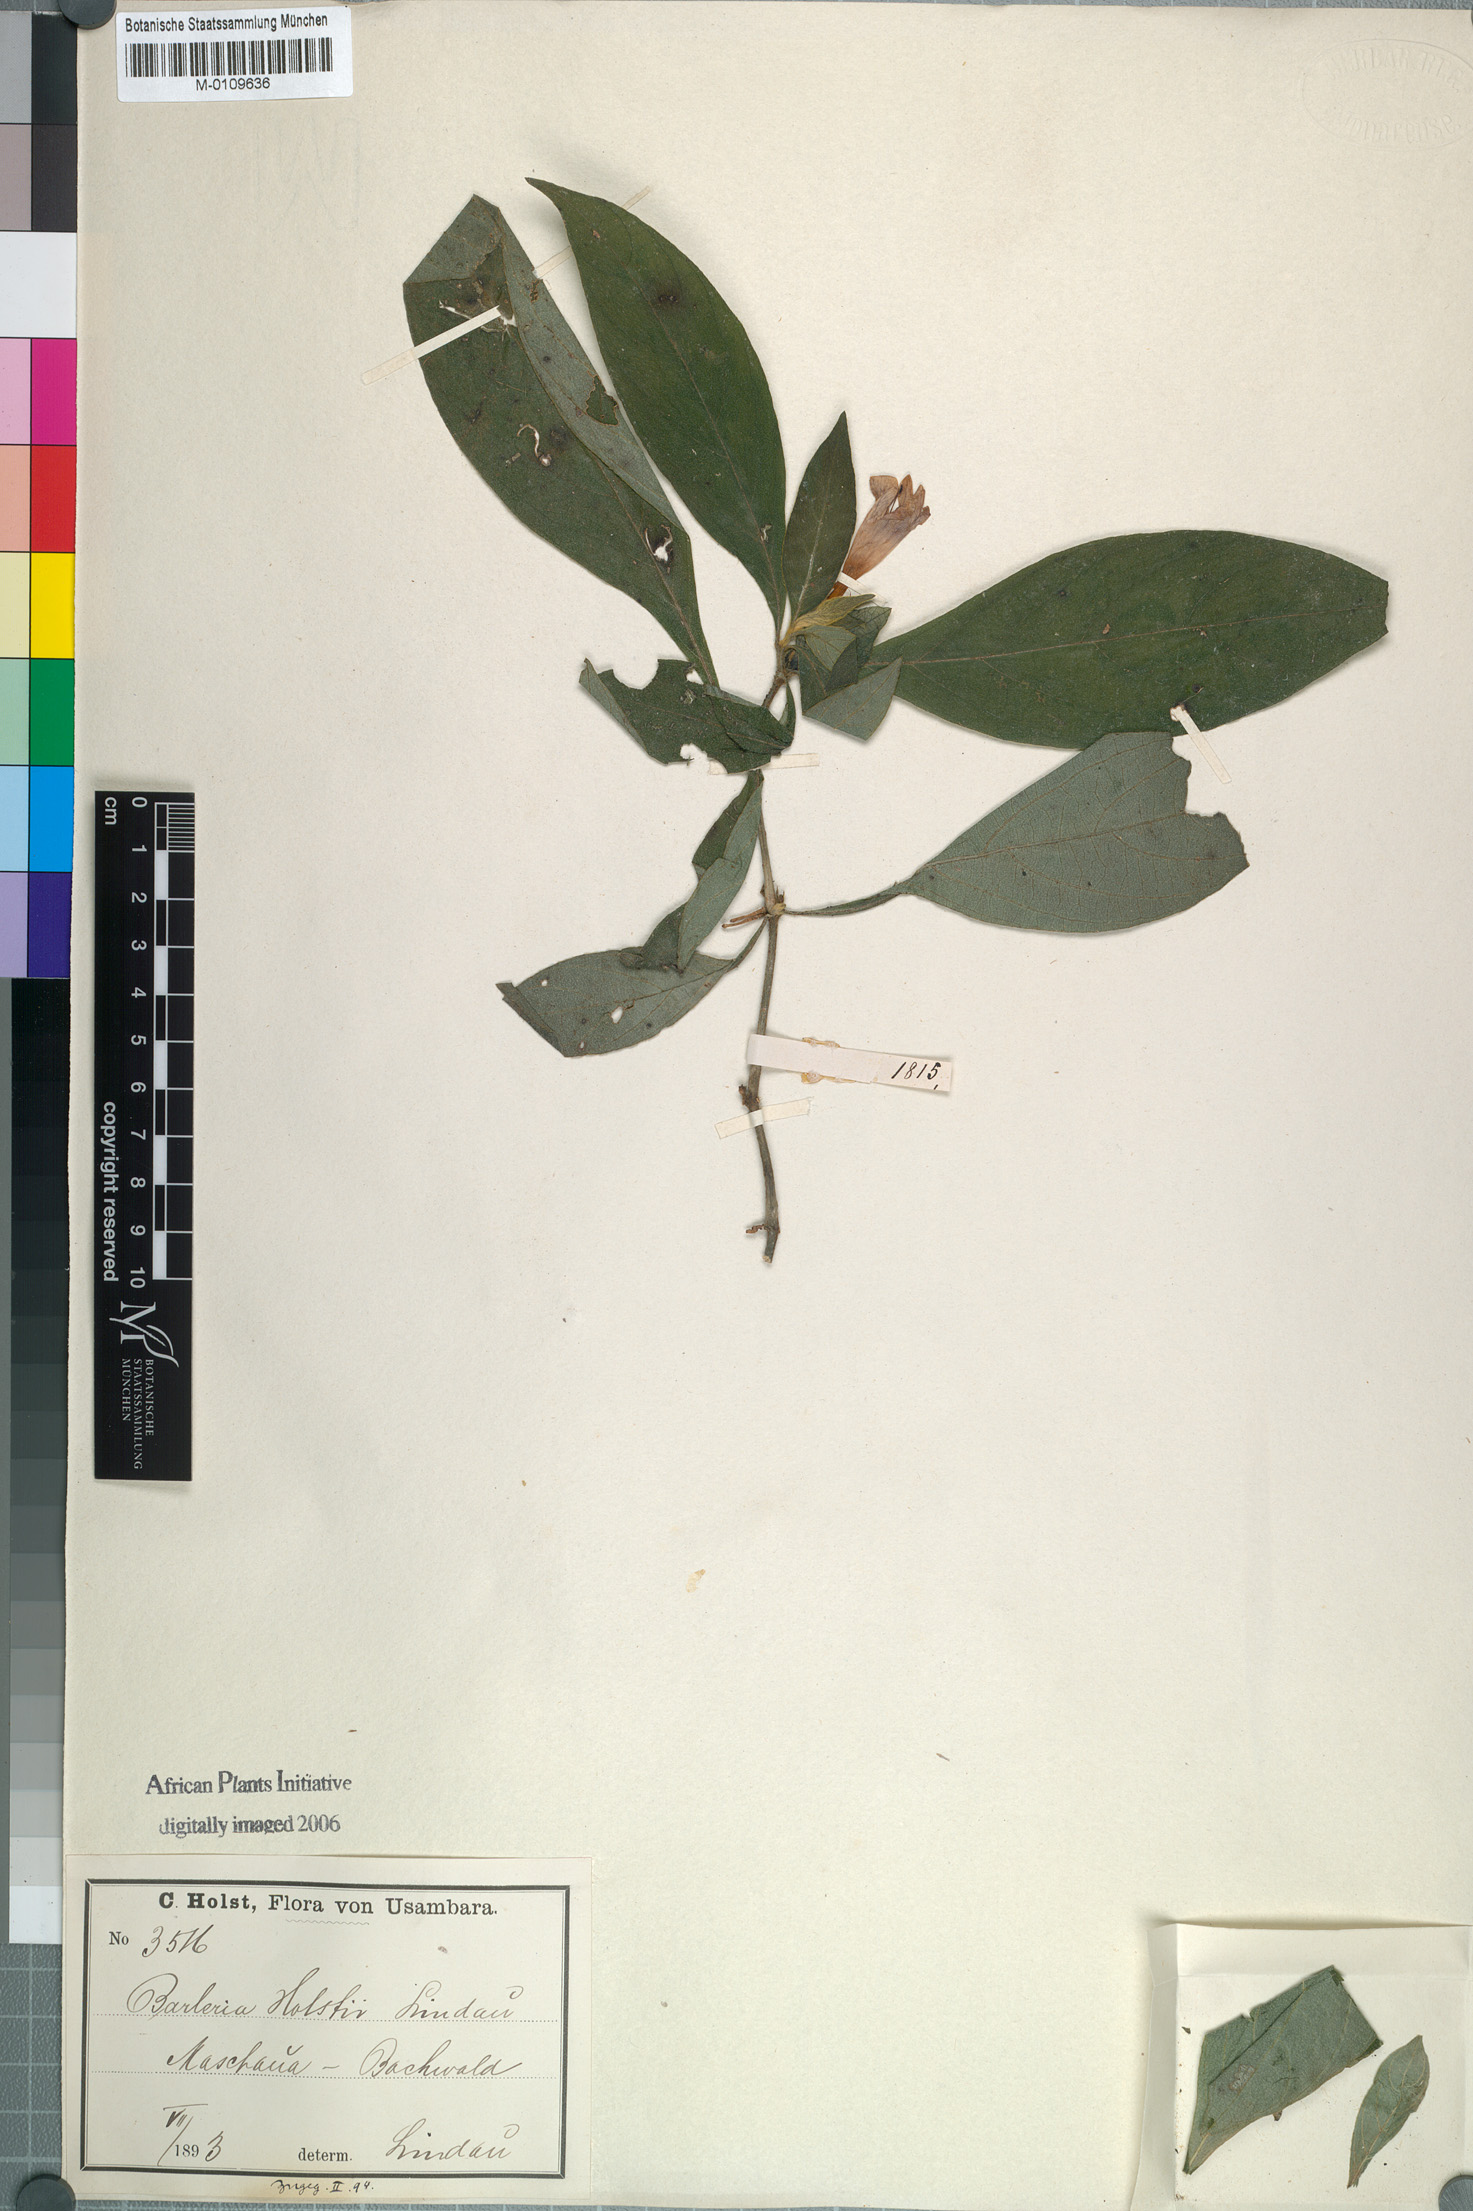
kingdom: Plantae
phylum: Tracheophyta
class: Magnoliopsida
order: Lamiales
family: Acanthaceae
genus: Barleria
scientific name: Barleria holstii
